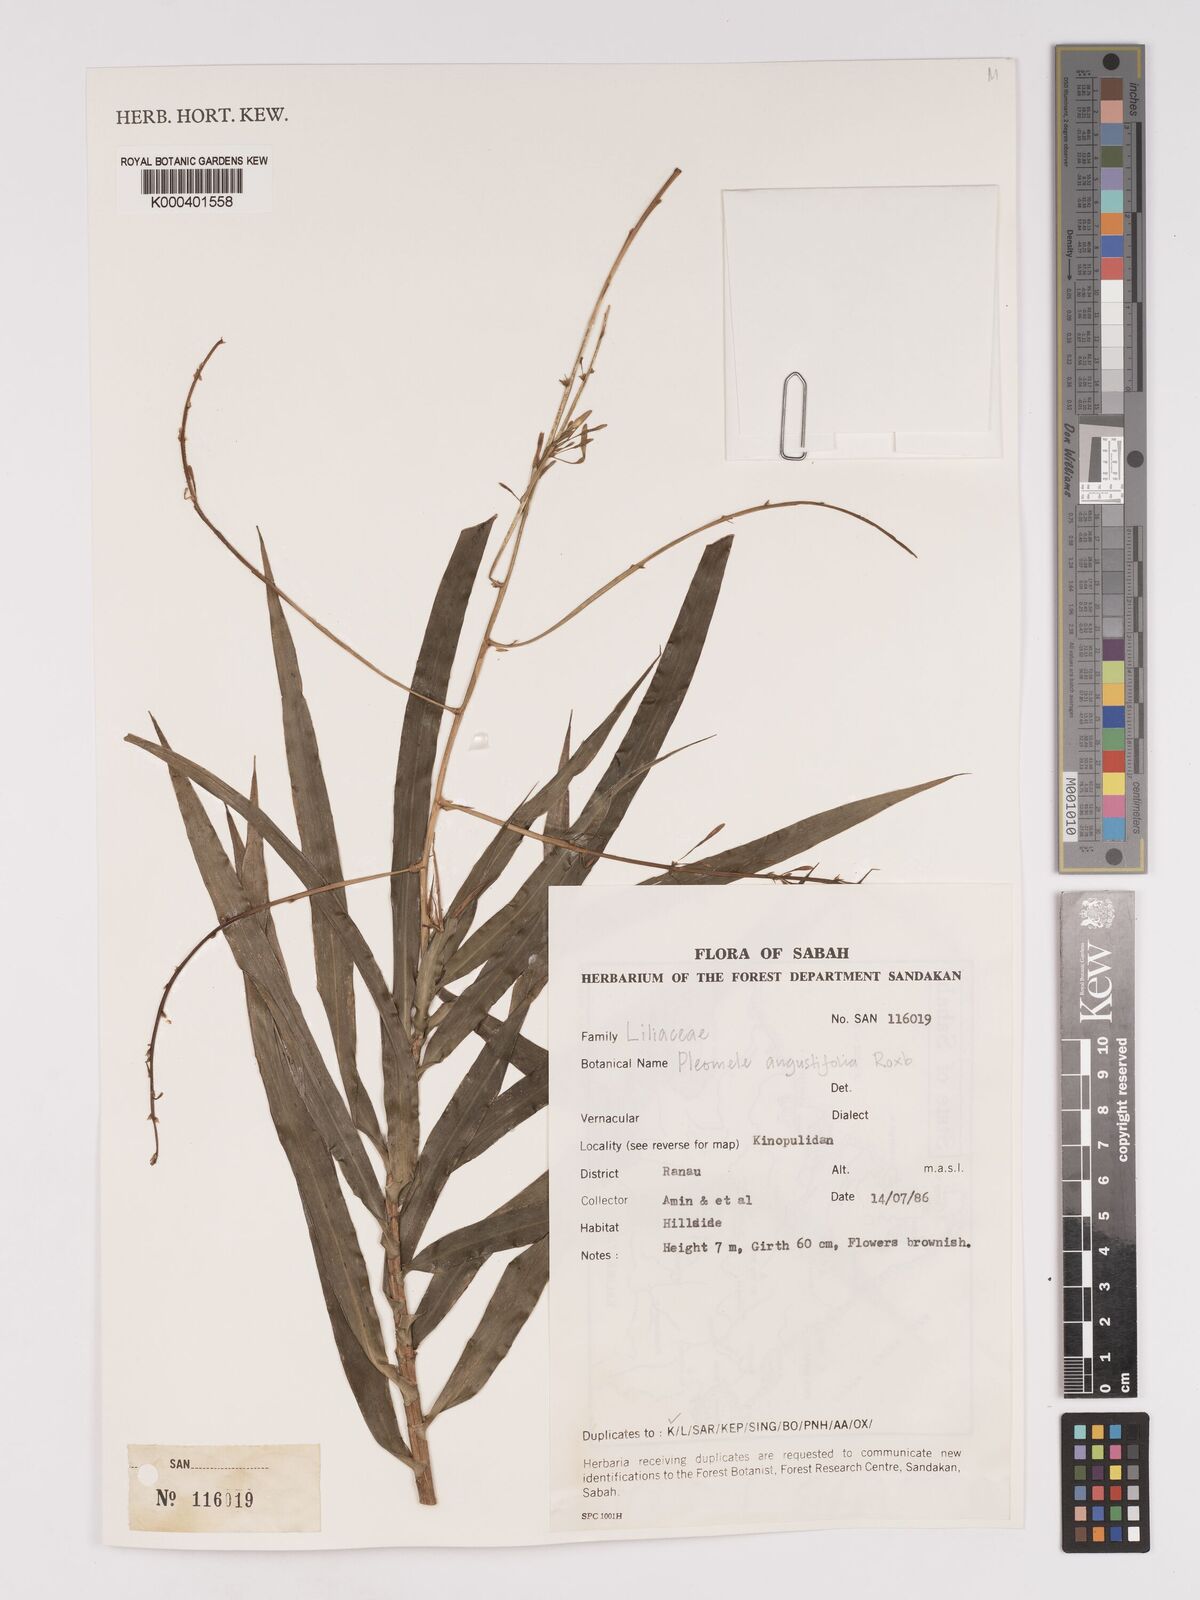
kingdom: Plantae
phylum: Tracheophyta
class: Liliopsida
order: Asparagales
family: Asparagaceae
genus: Dracaena
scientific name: Dracaena angustifolia
